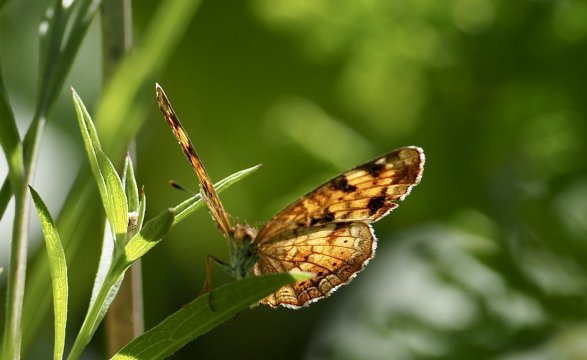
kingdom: Animalia
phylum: Arthropoda
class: Insecta
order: Lepidoptera
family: Nymphalidae
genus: Phyciodes
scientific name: Phyciodes tharos
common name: Northern Crescent
